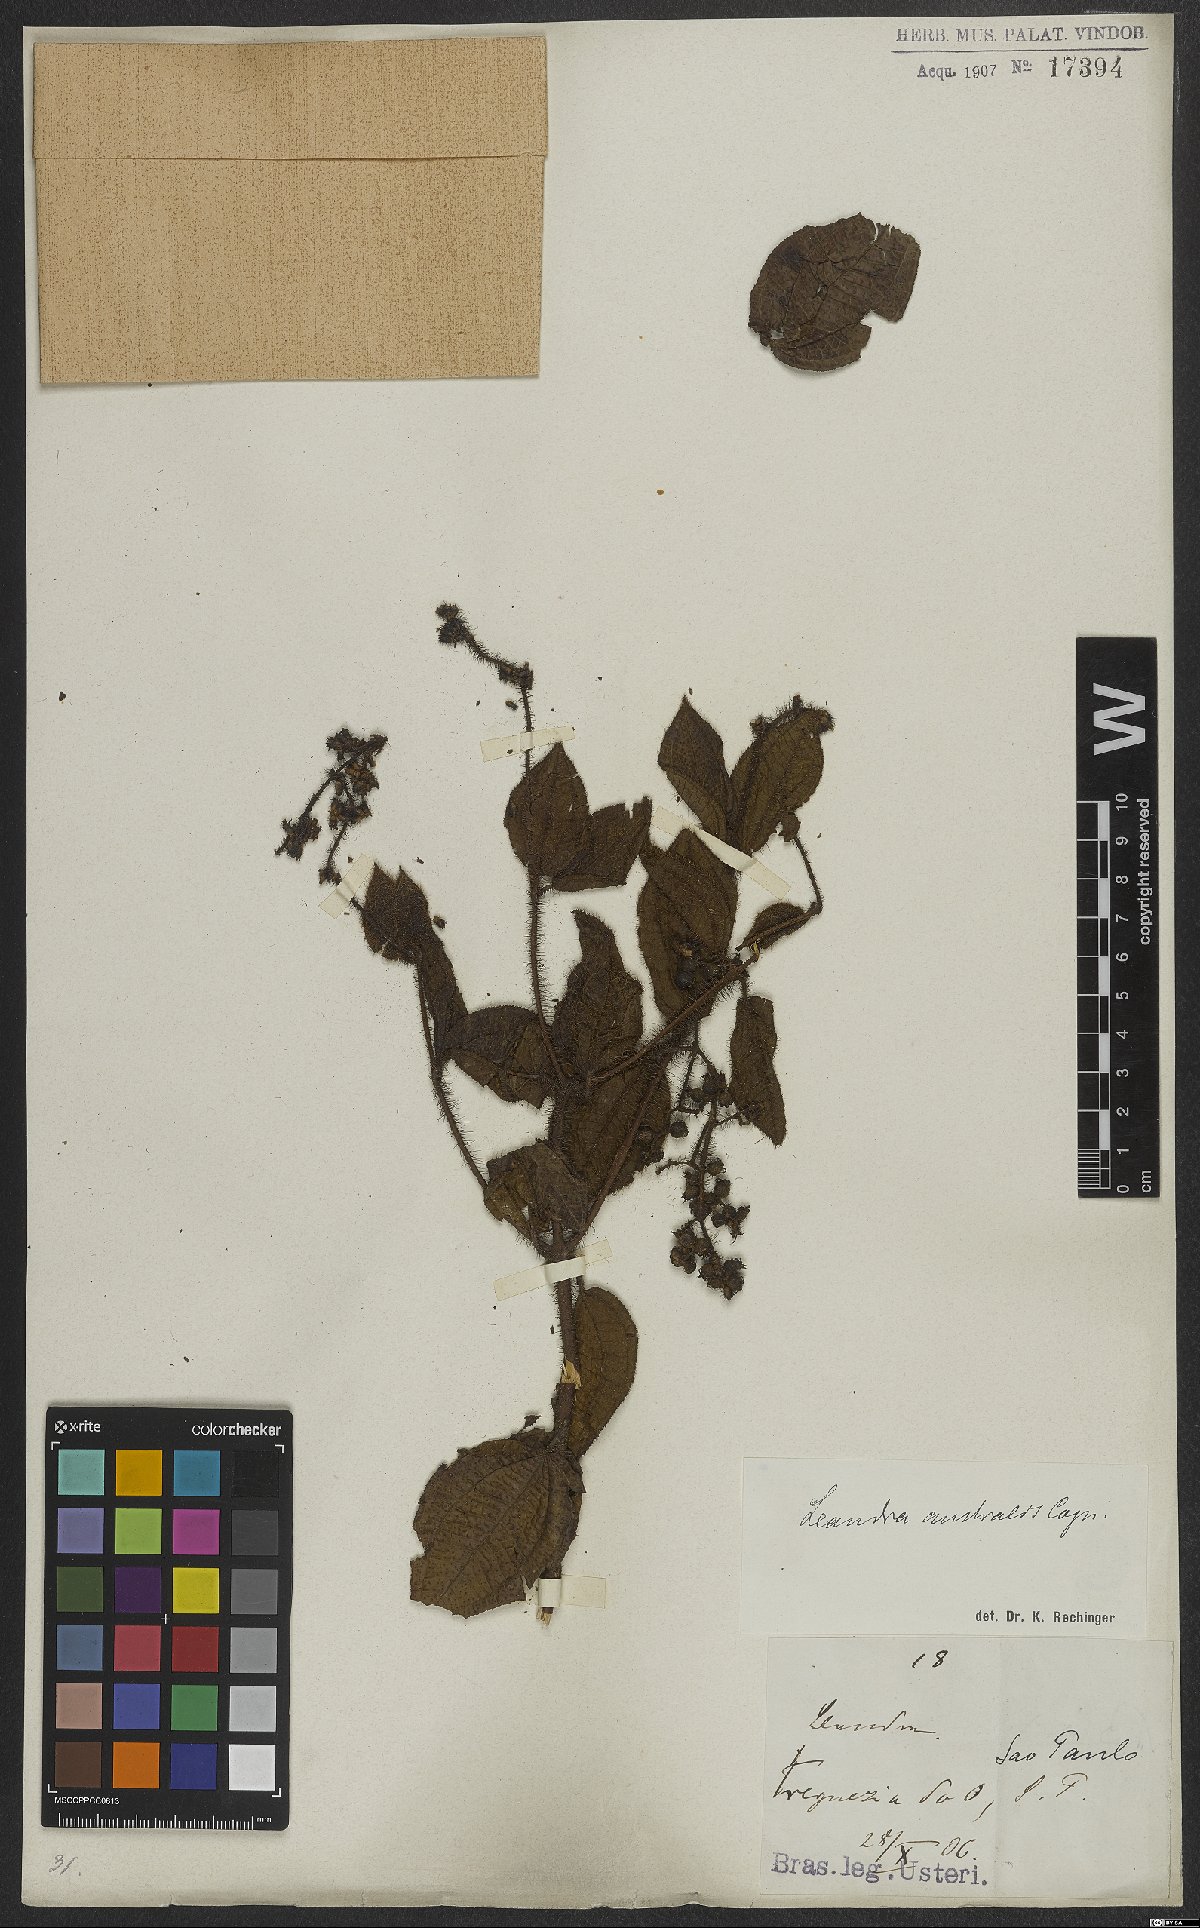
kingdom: Plantae
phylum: Tracheophyta
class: Magnoliopsida
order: Myrtales
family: Melastomataceae
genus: Miconia
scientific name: Miconia australis
